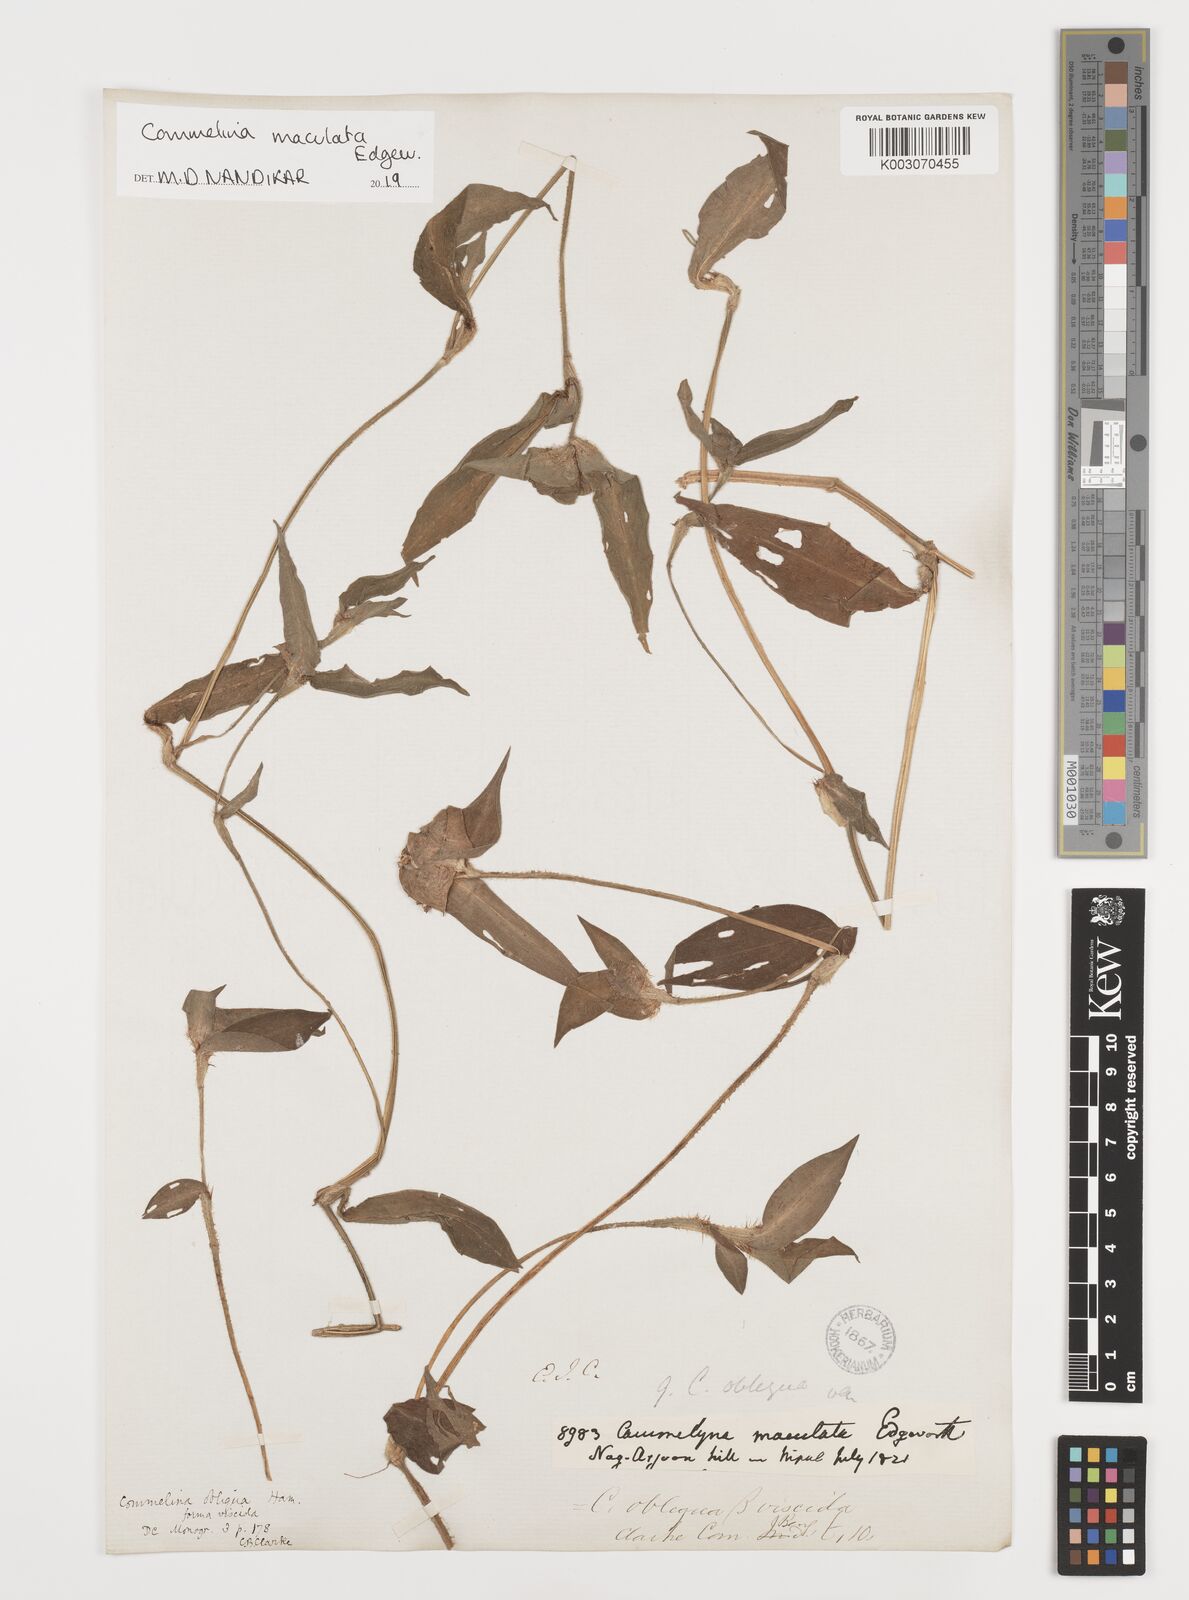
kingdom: Plantae
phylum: Tracheophyta
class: Liliopsida
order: Commelinales
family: Commelinaceae
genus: Commelina
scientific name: Commelina maculata
